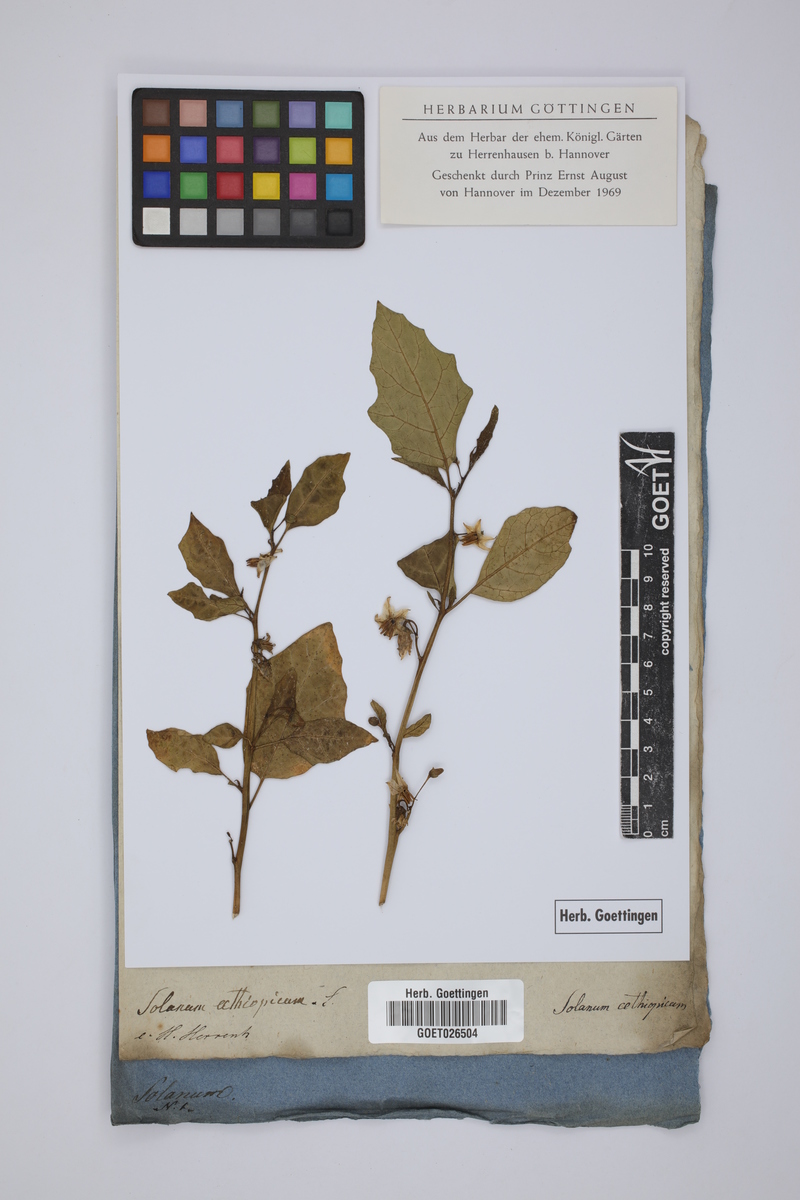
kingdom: Plantae
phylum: Tracheophyta
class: Magnoliopsida
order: Solanales
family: Solanaceae
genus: Solanum
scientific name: Solanum aethiopicum
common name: Gilo
